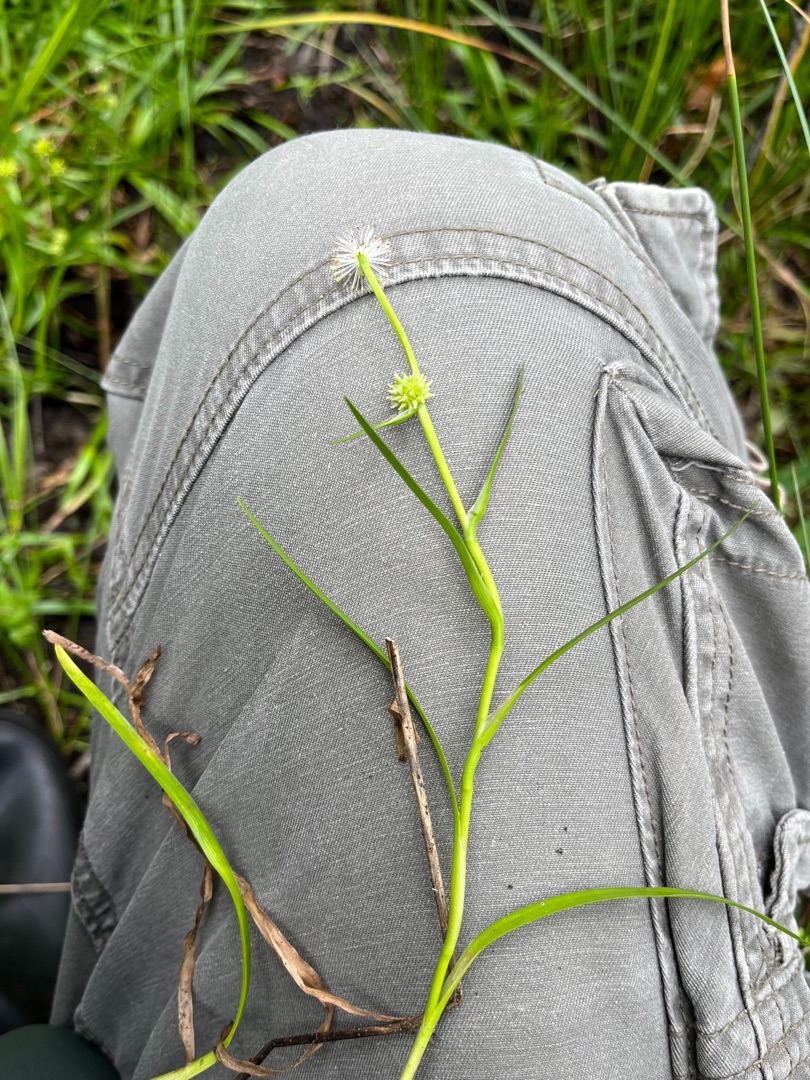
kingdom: Plantae
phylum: Tracheophyta
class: Liliopsida
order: Poales
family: Typhaceae
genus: Sparganium
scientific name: Sparganium natans
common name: Spæd pindsvineknop
